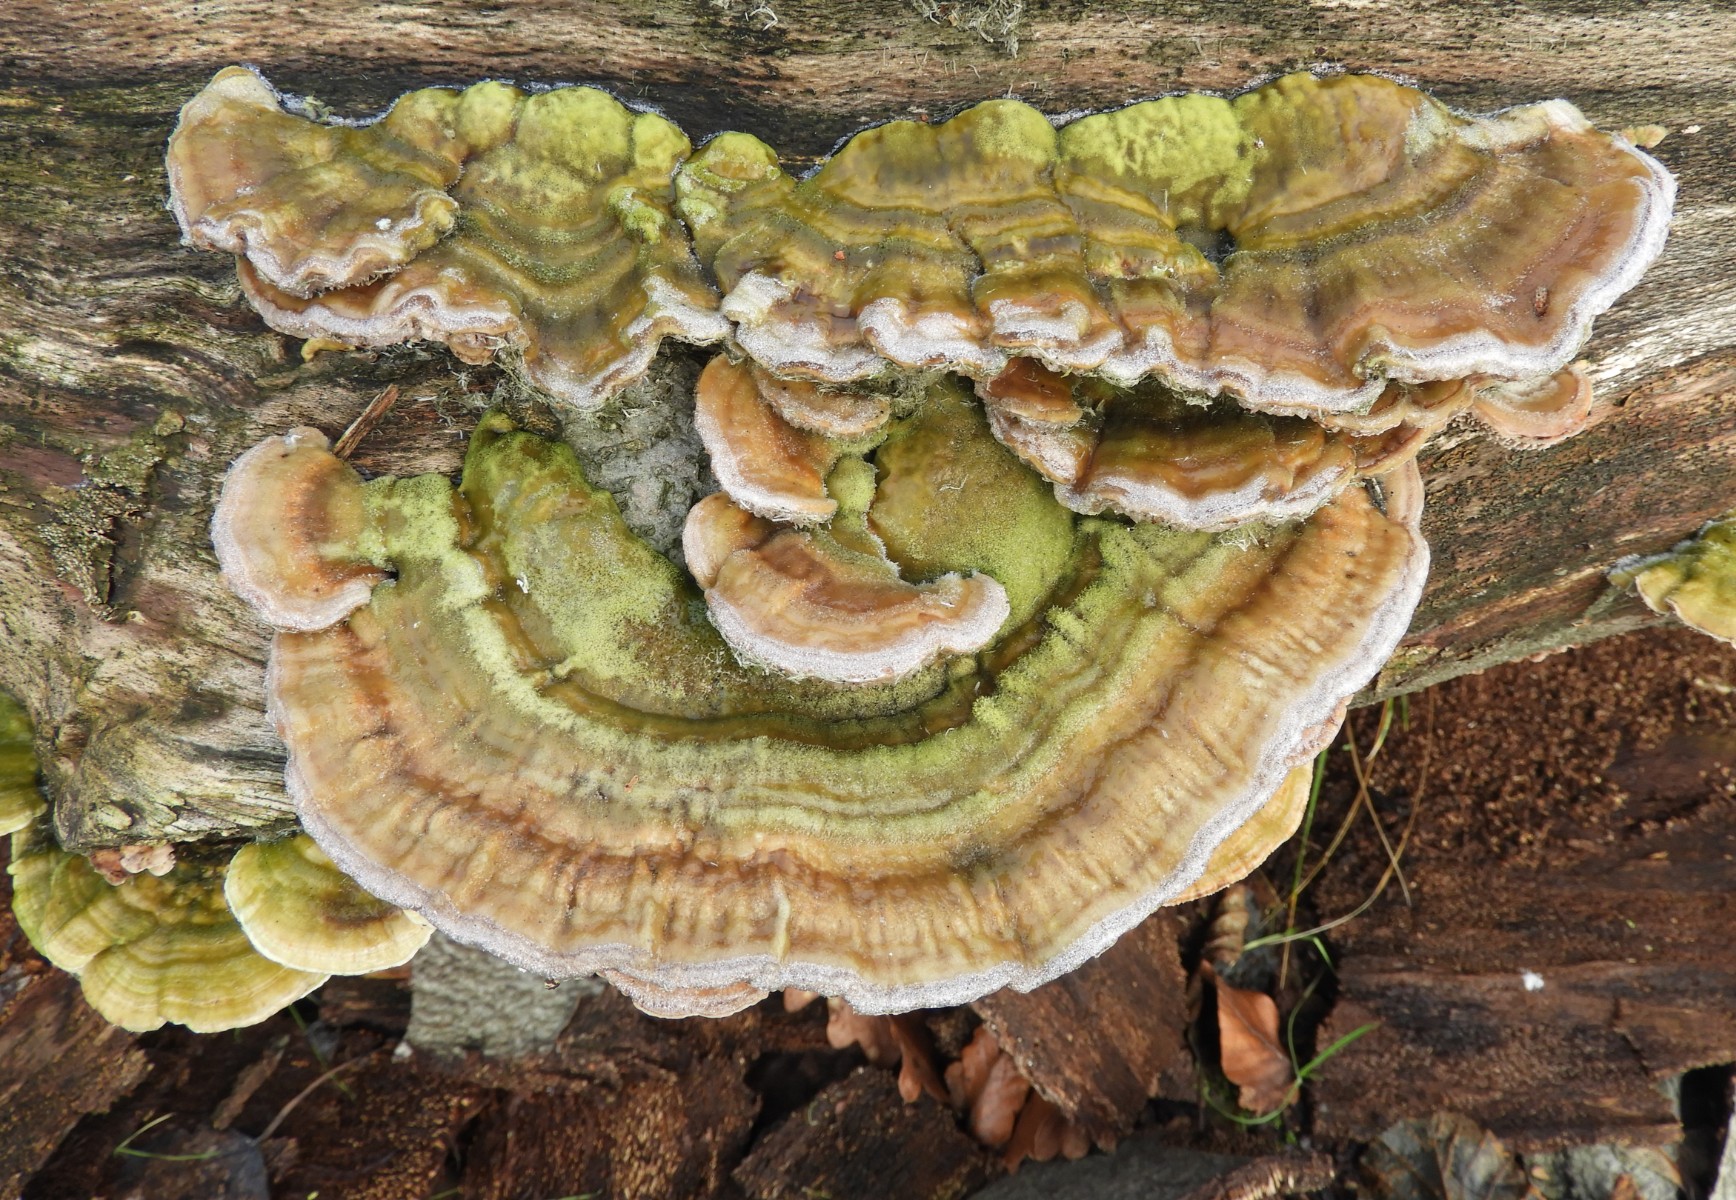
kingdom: Fungi
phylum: Basidiomycota
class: Agaricomycetes
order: Polyporales
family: Polyporaceae
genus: Lenzites
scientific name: Lenzites betulinus
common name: birke-læderporesvamp
